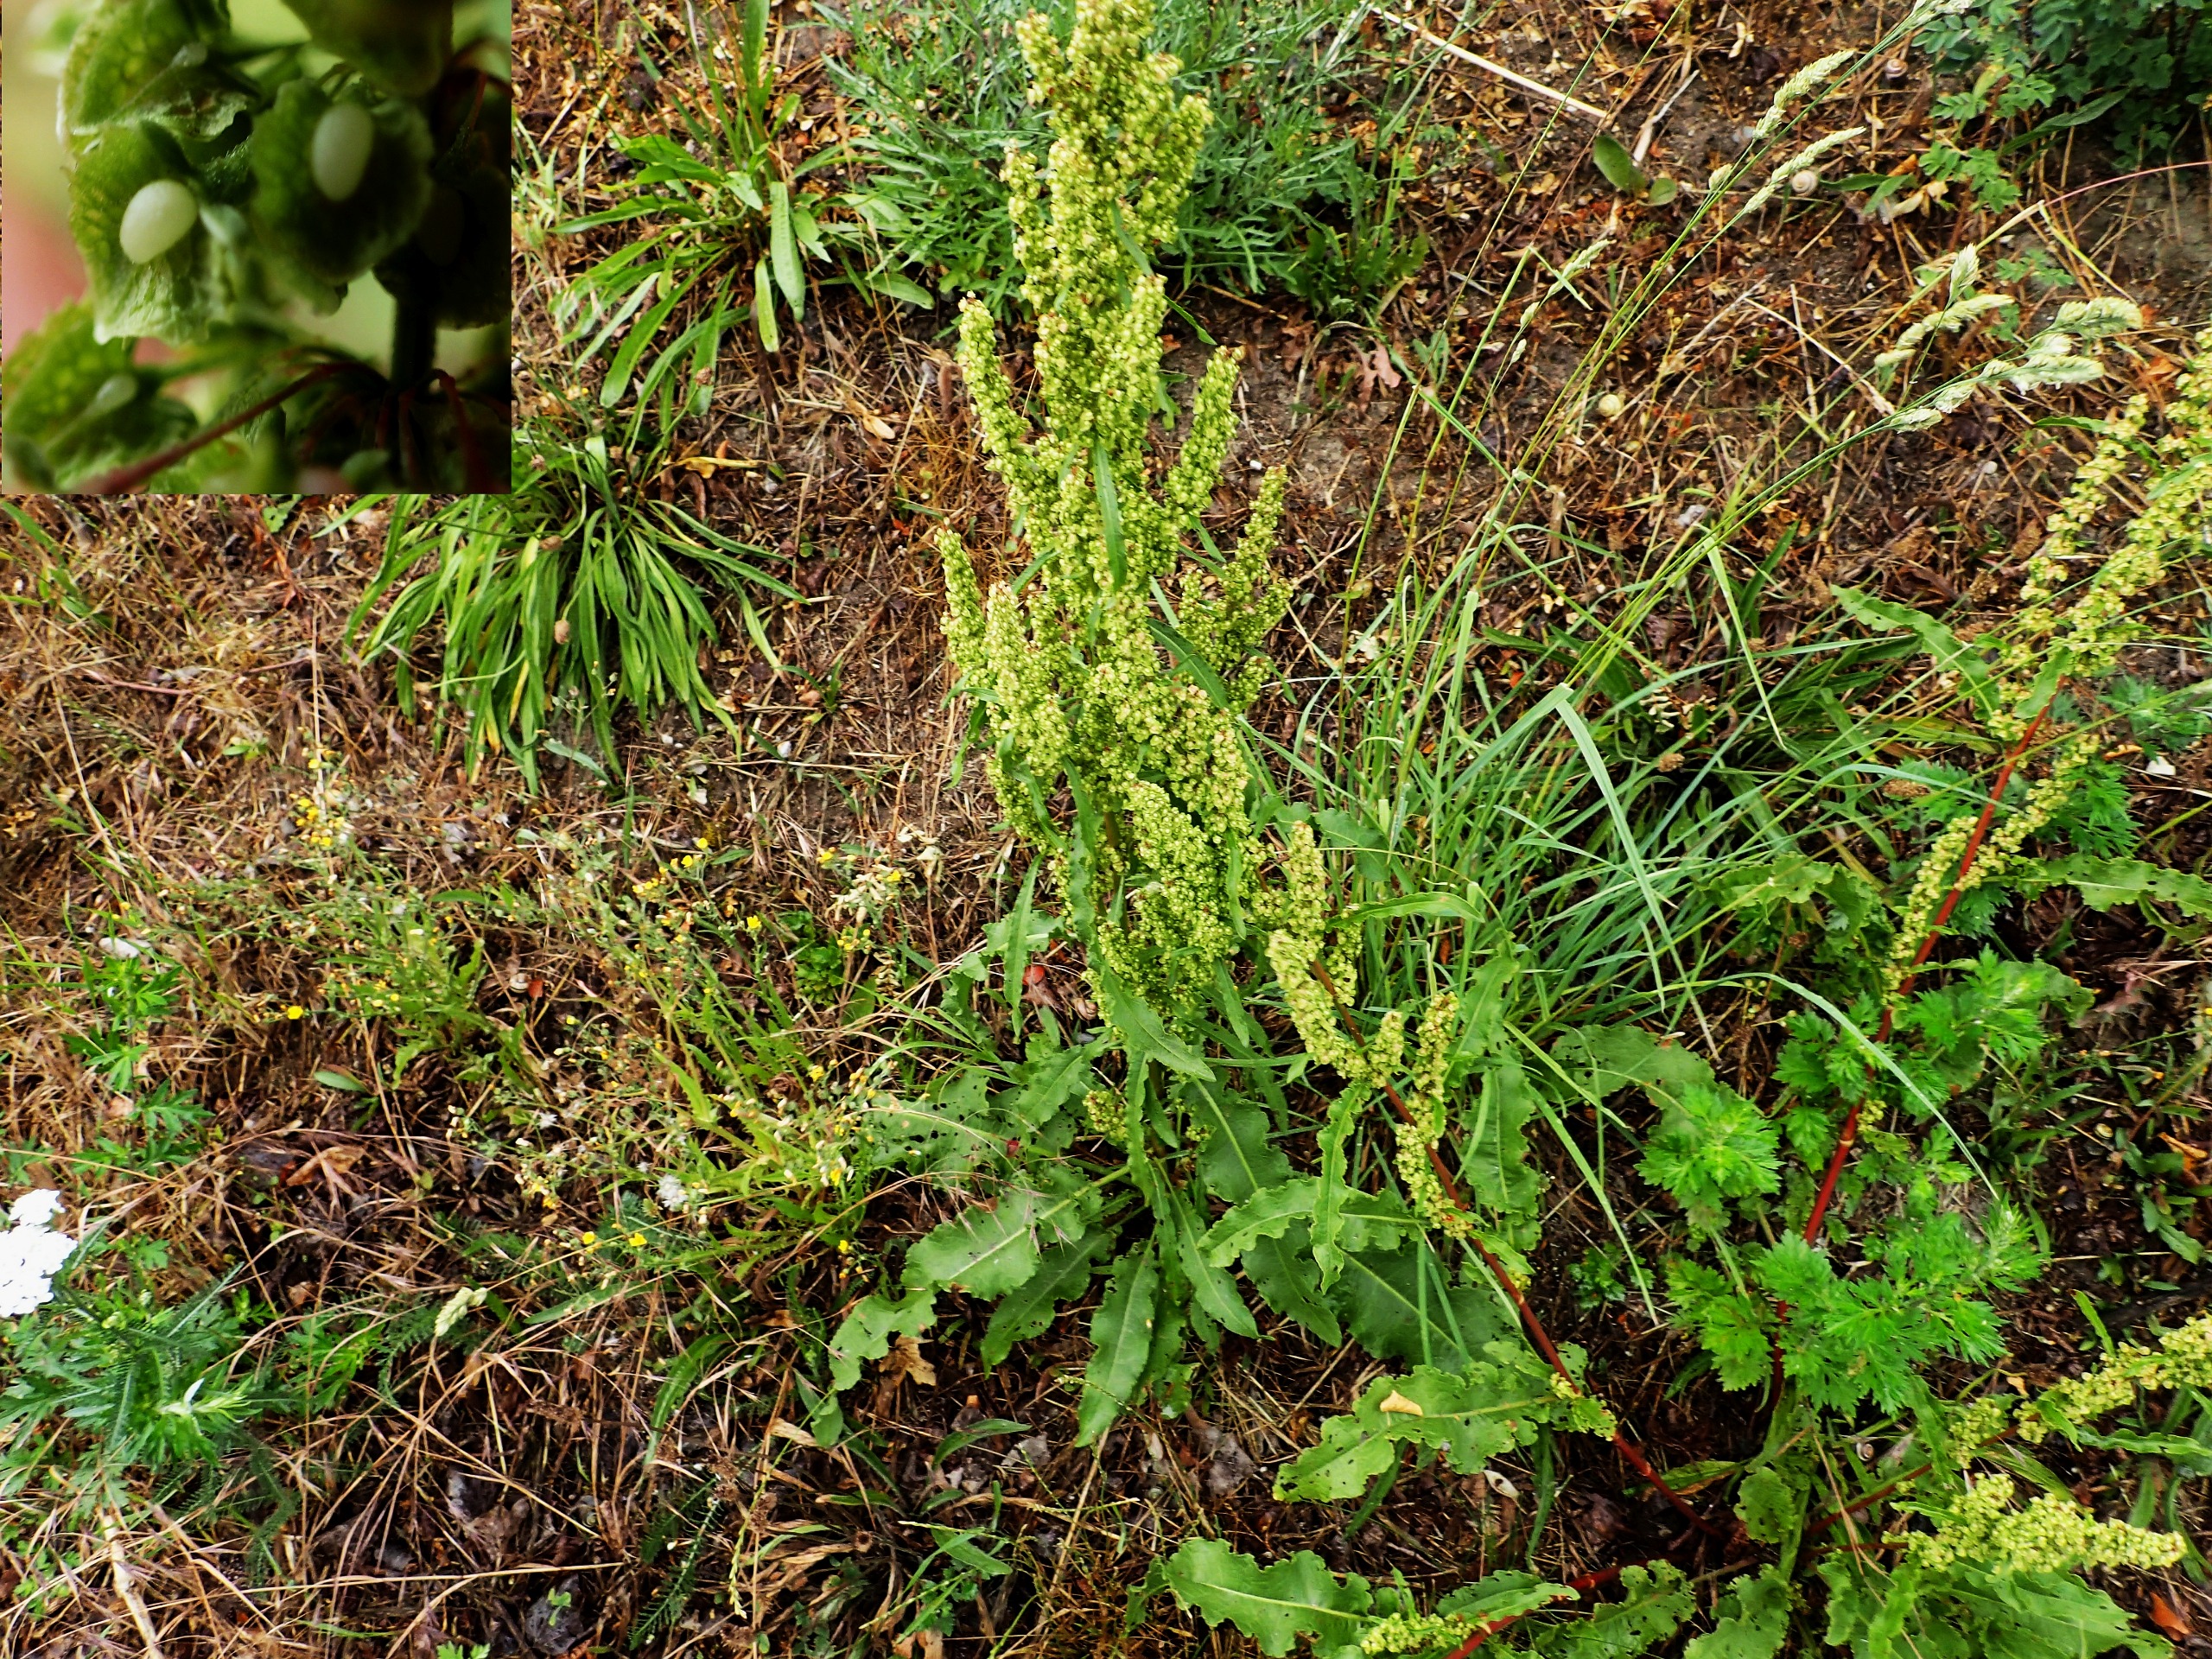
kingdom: Plantae
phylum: Tracheophyta
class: Magnoliopsida
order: Caryophyllales
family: Polygonaceae
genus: Rumex
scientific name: Rumex crispus
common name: Kruset skræppe
